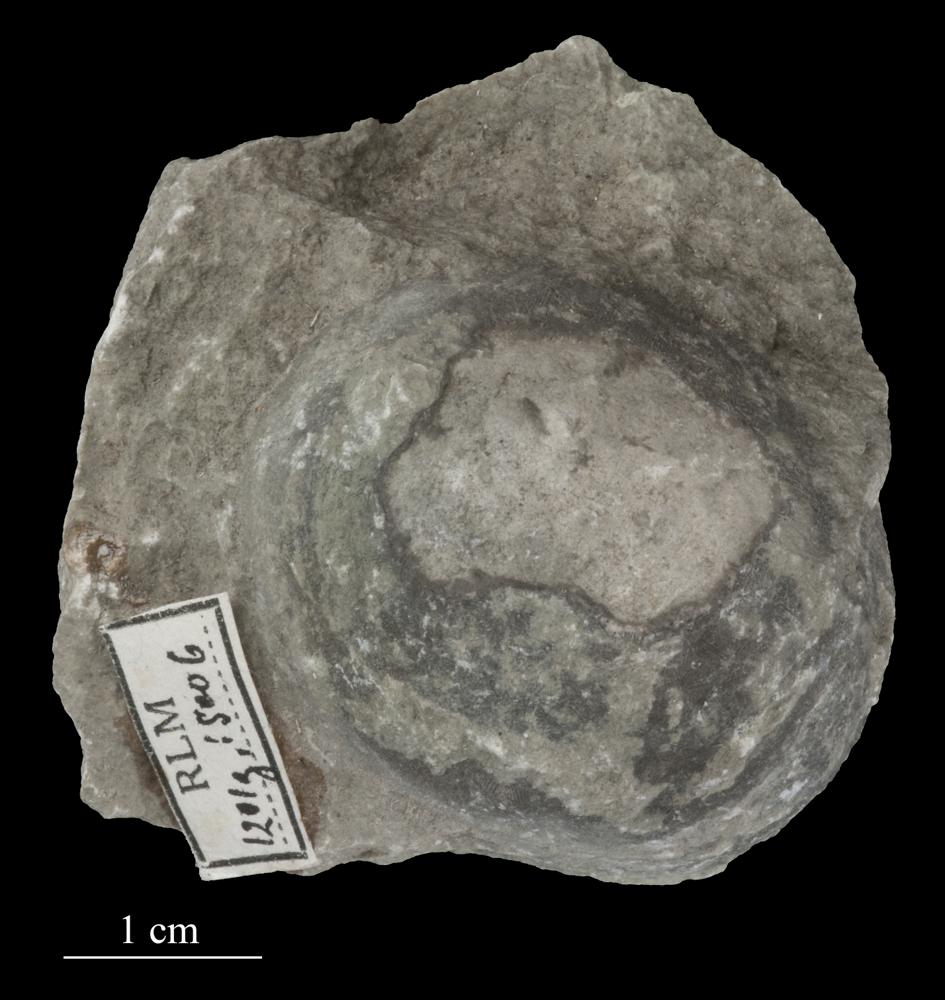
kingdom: Animalia
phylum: Echinodermata
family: Echinosphaeritidae
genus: Echinosphaerites
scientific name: Echinosphaerites Echinus aurantium
